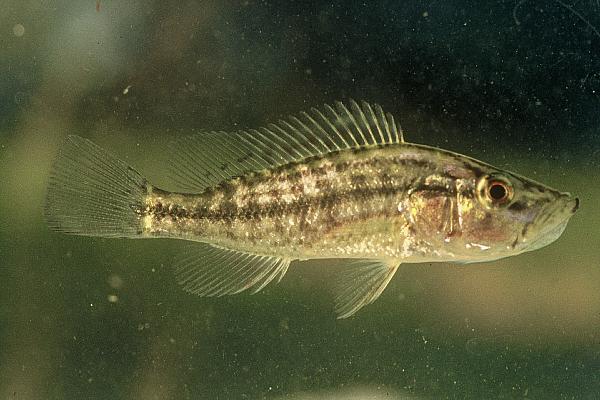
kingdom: Animalia
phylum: Chordata
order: Perciformes
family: Cichlidae
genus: Serranochromis
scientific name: Serranochromis angusticeps
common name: Thinface largemouth
